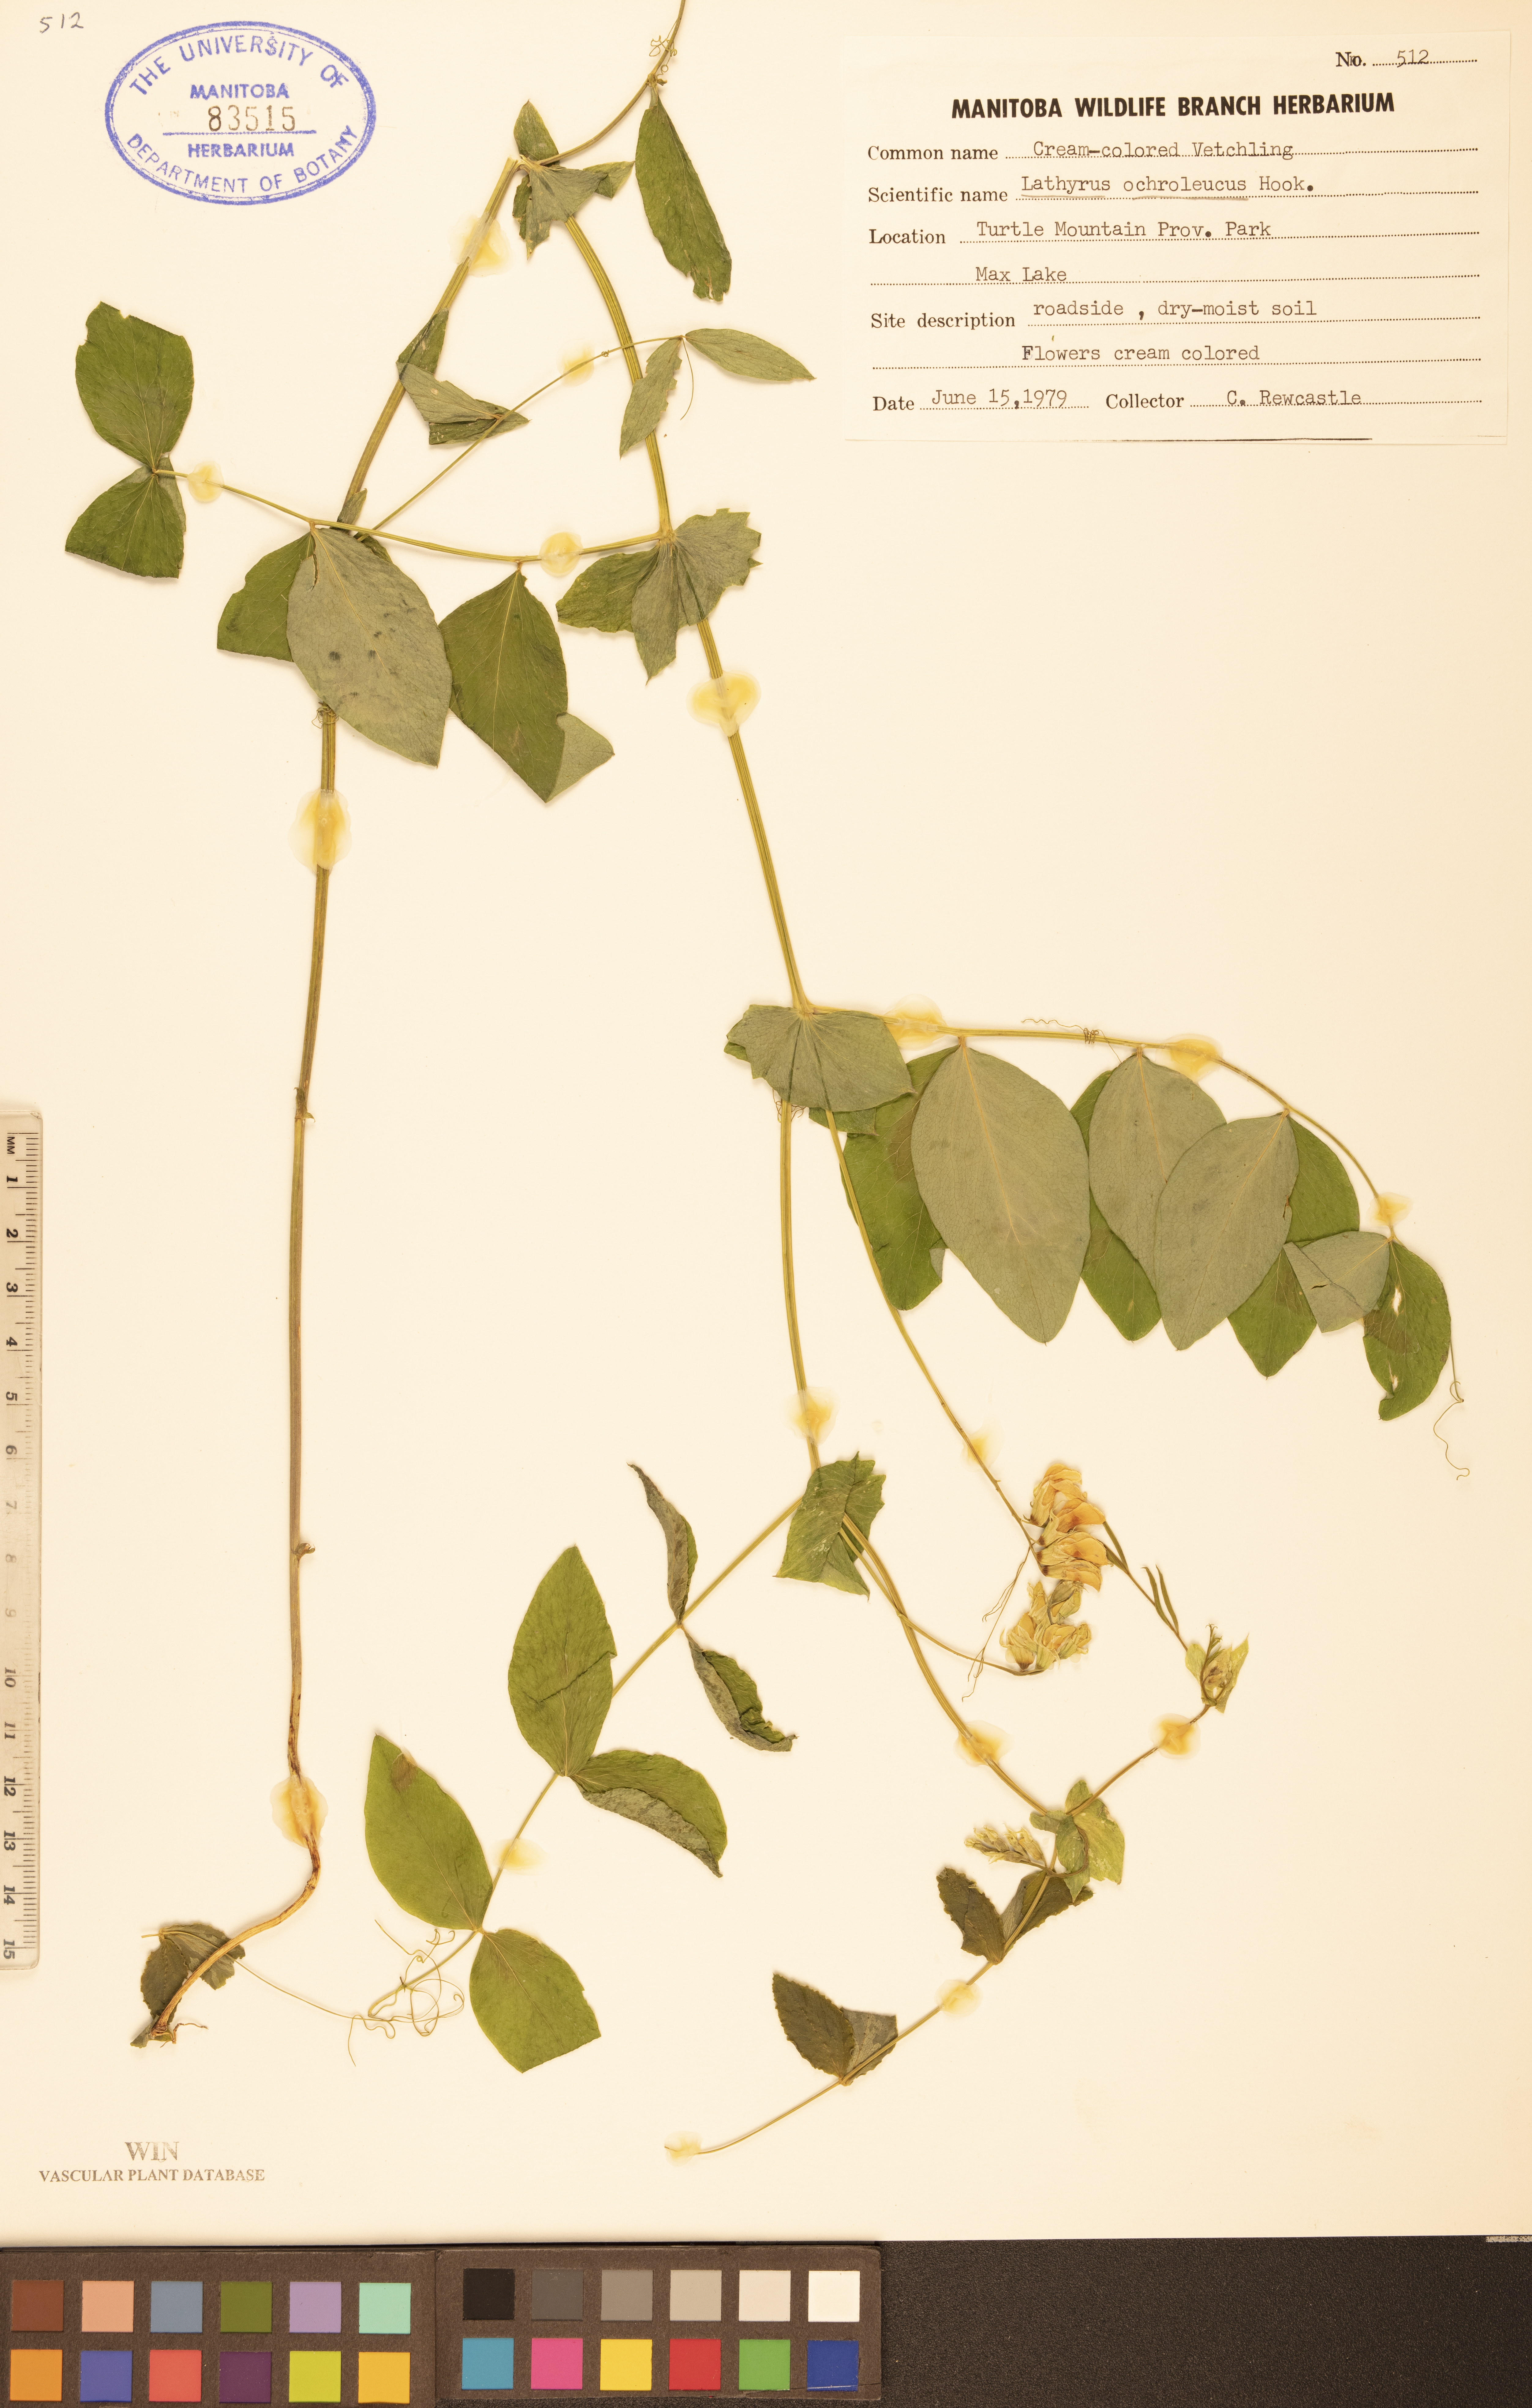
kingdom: Plantae
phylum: Tracheophyta
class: Magnoliopsida
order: Fabales
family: Fabaceae
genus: Lathyrus
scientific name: Lathyrus ochroleucus
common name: Pale vetchling
